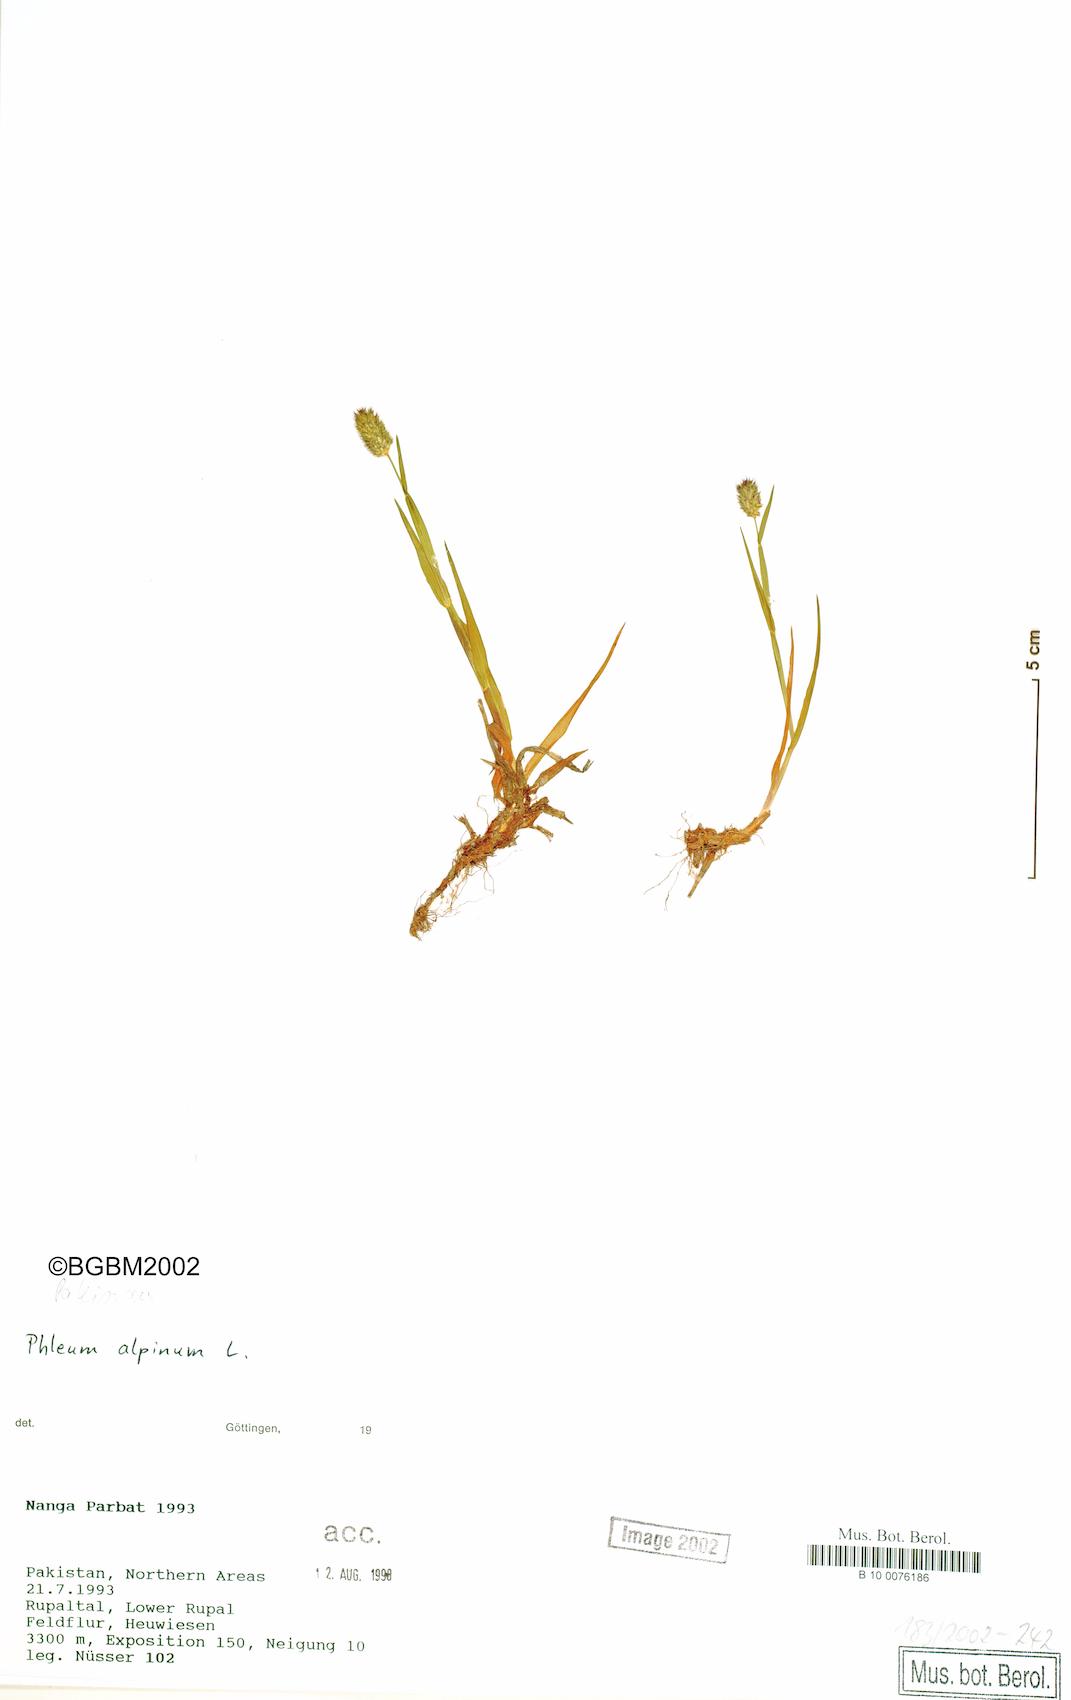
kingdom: Plantae
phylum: Tracheophyta
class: Liliopsida
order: Poales
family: Poaceae
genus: Phleum
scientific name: Phleum alpinum
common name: Alpine cat's-tail
